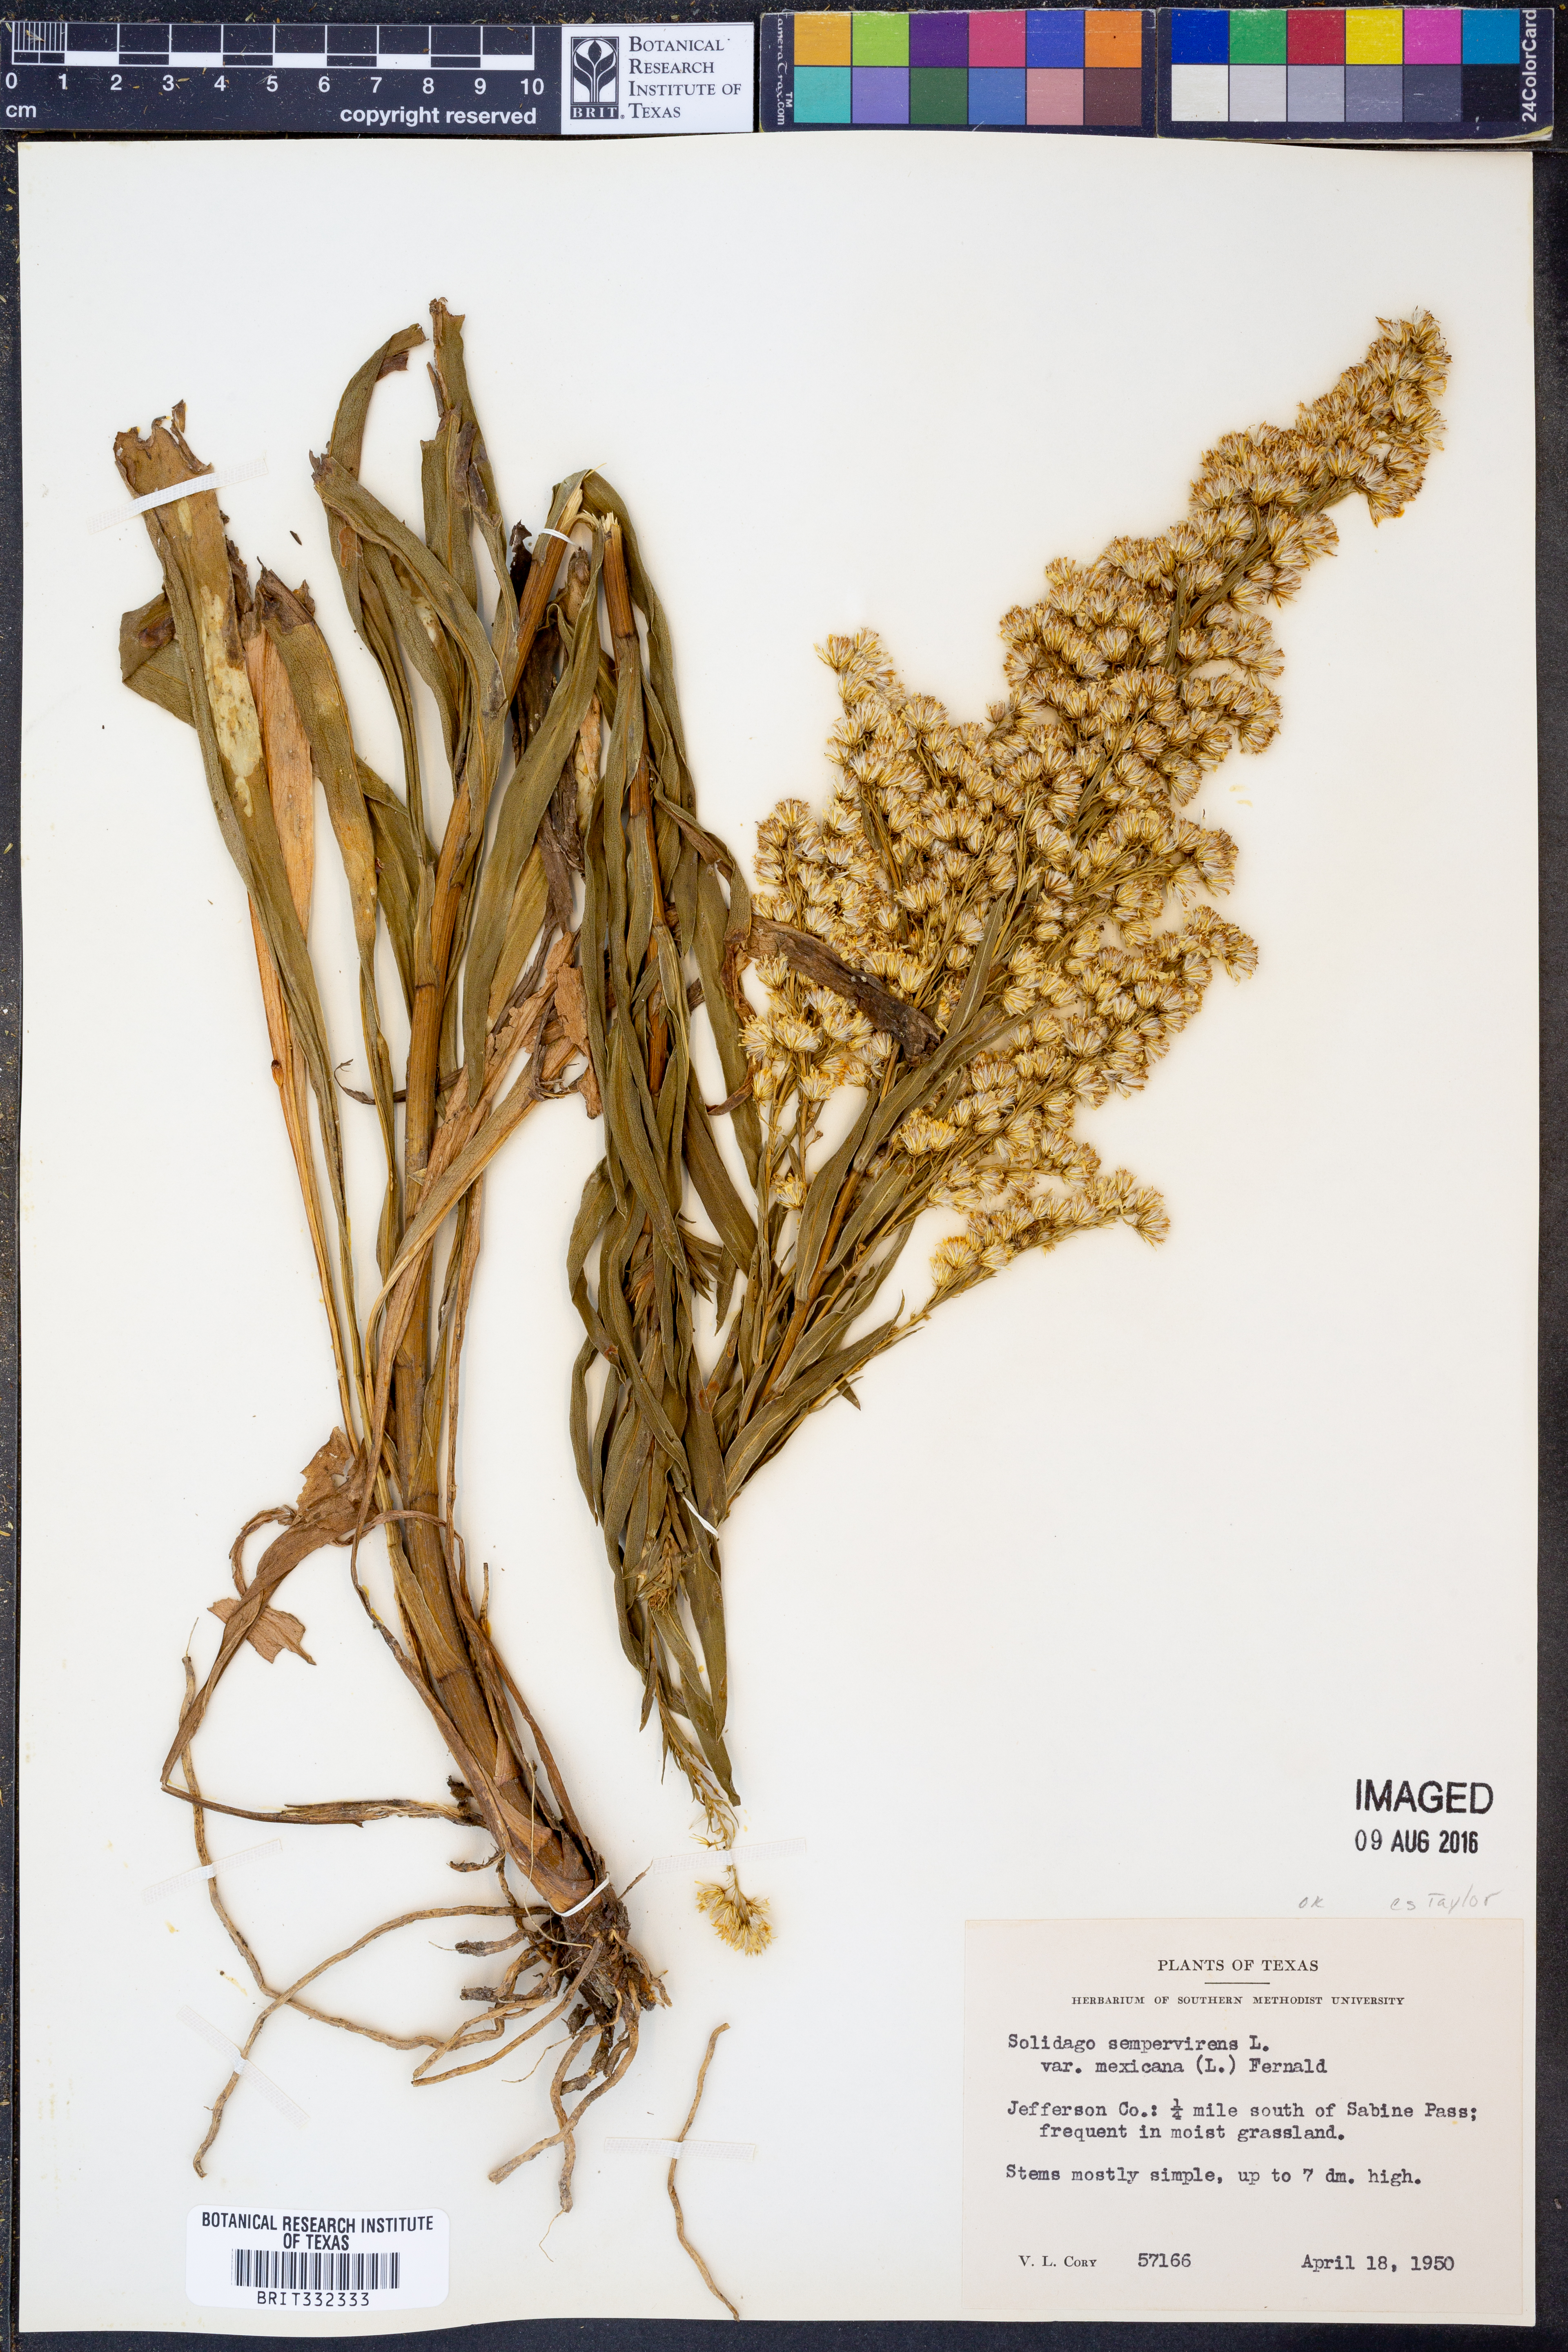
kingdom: Plantae
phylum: Tracheophyta
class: Magnoliopsida
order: Asterales
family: Asteraceae
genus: Solidago
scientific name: Solidago mexicana
